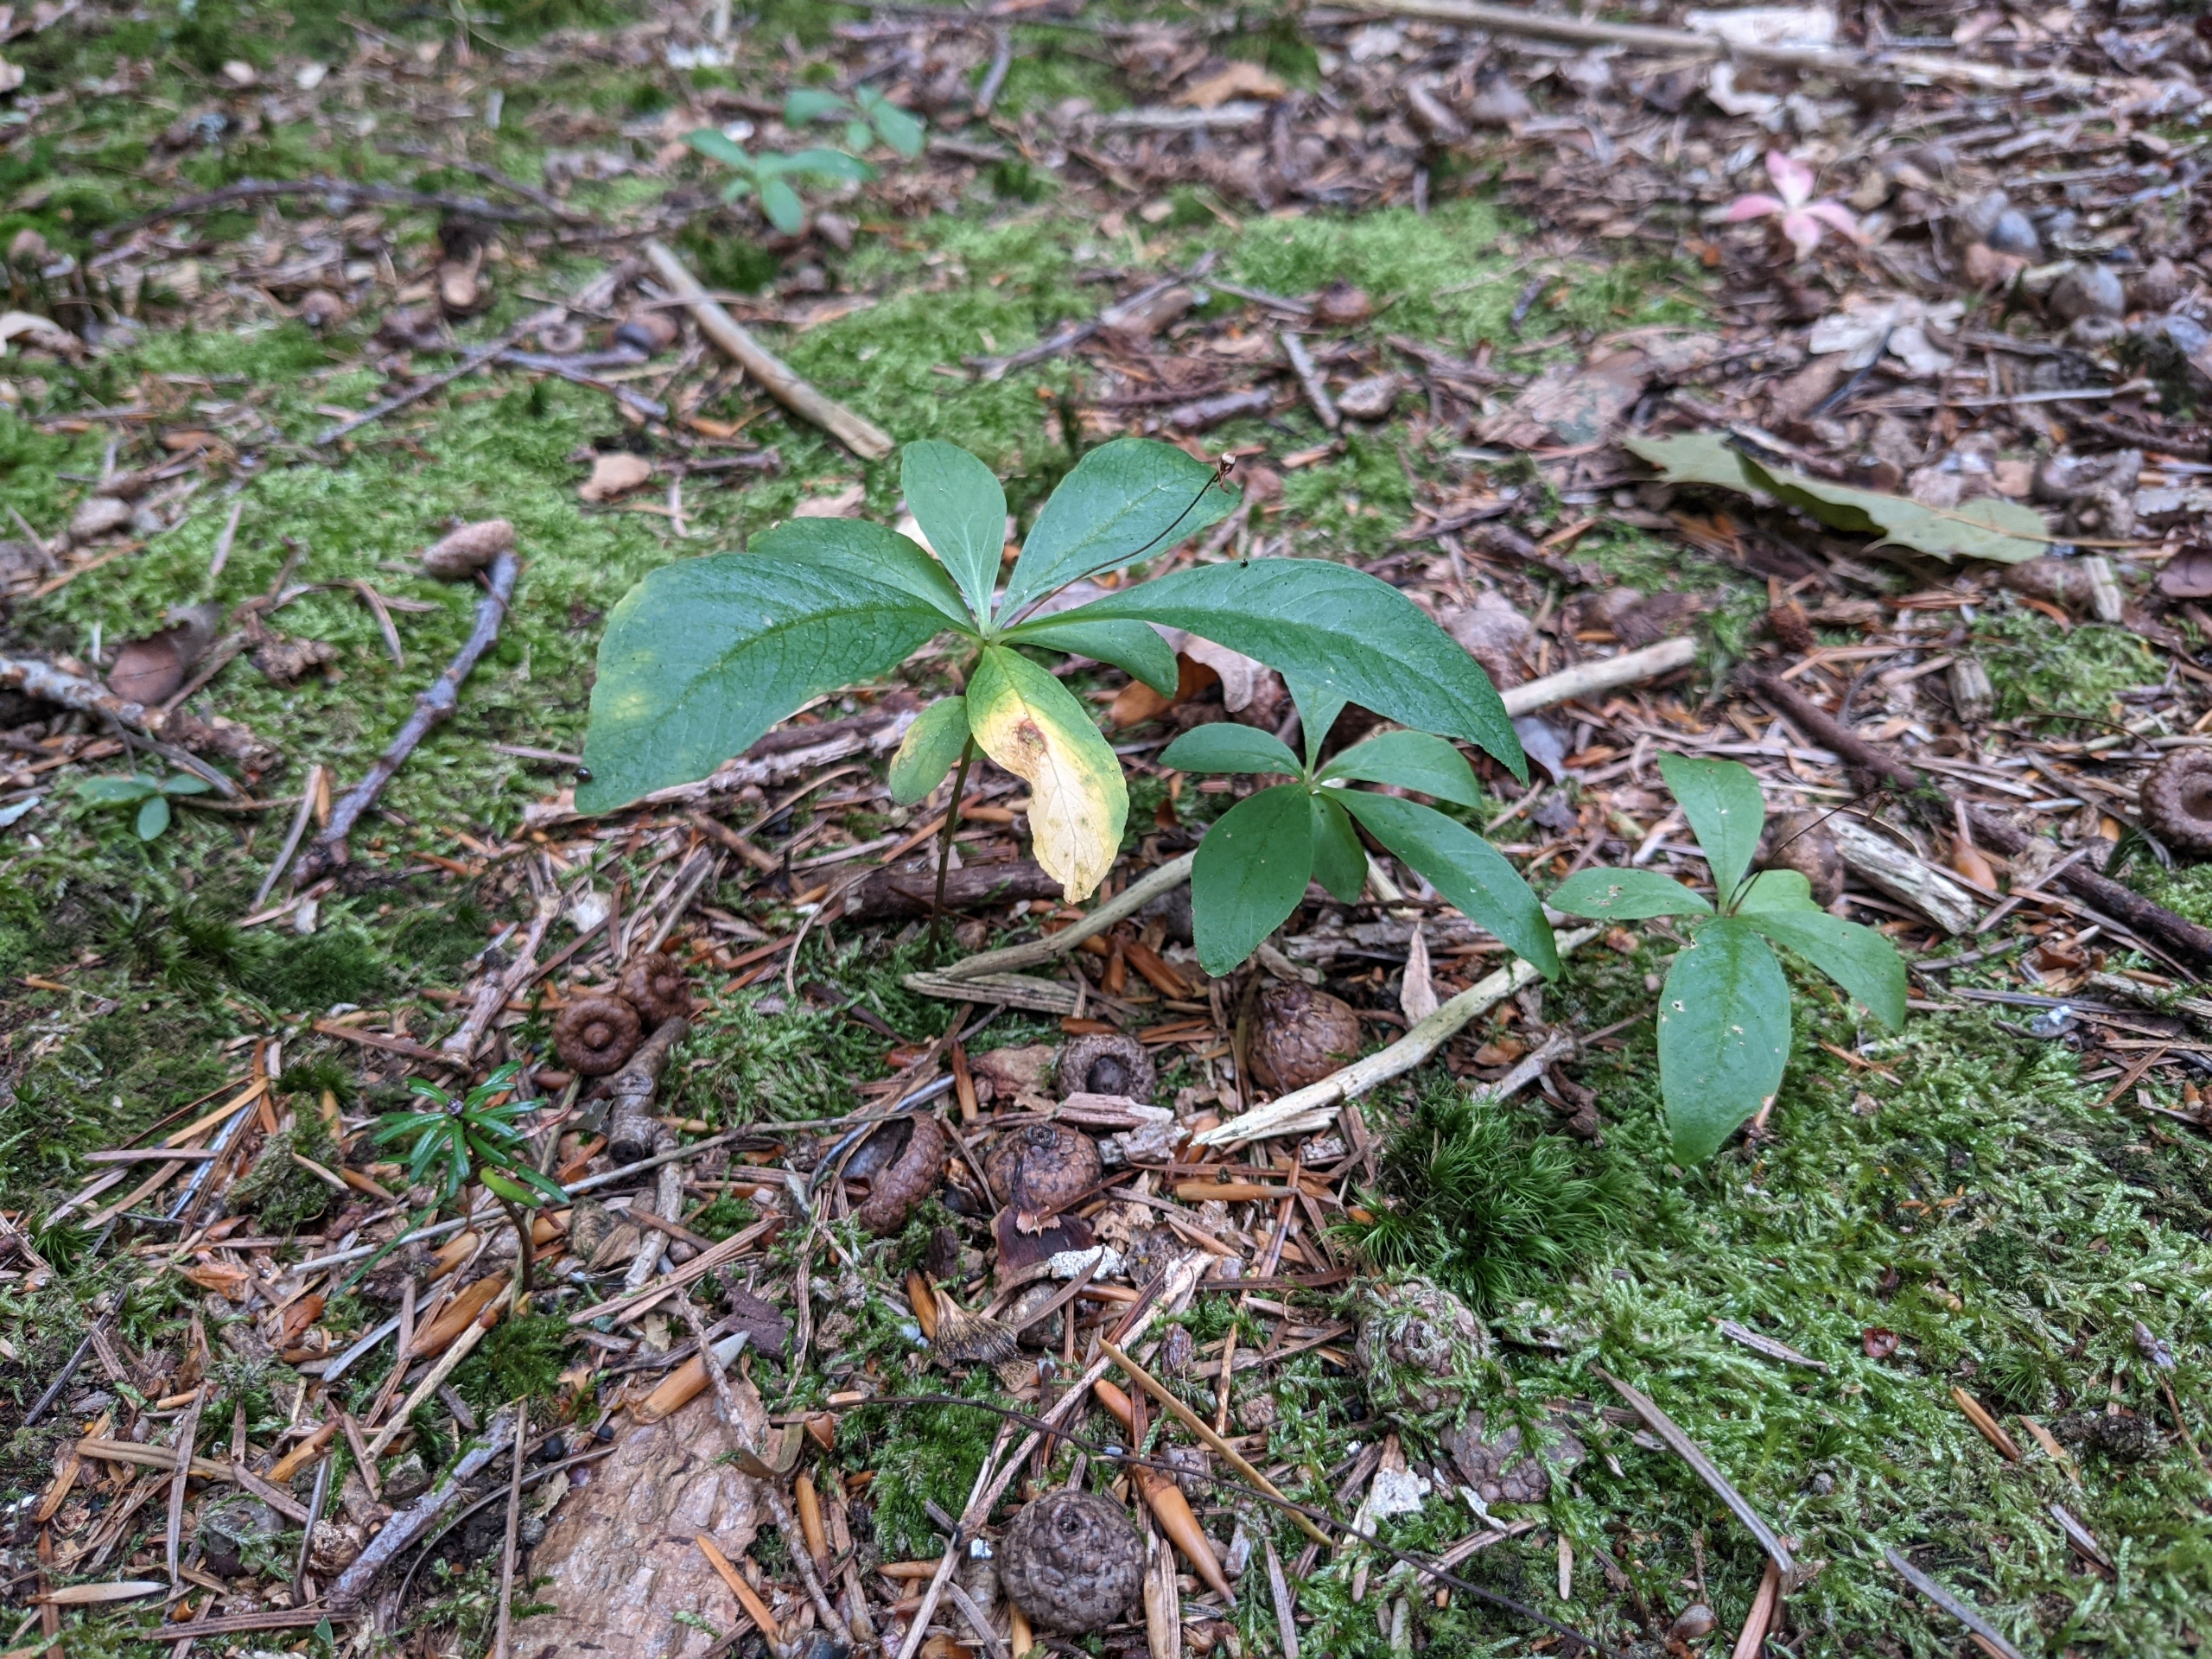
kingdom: Plantae
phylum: Tracheophyta
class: Magnoliopsida
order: Ericales
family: Primulaceae
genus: Lysimachia
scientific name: Lysimachia europaea
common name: Skovstjerne
